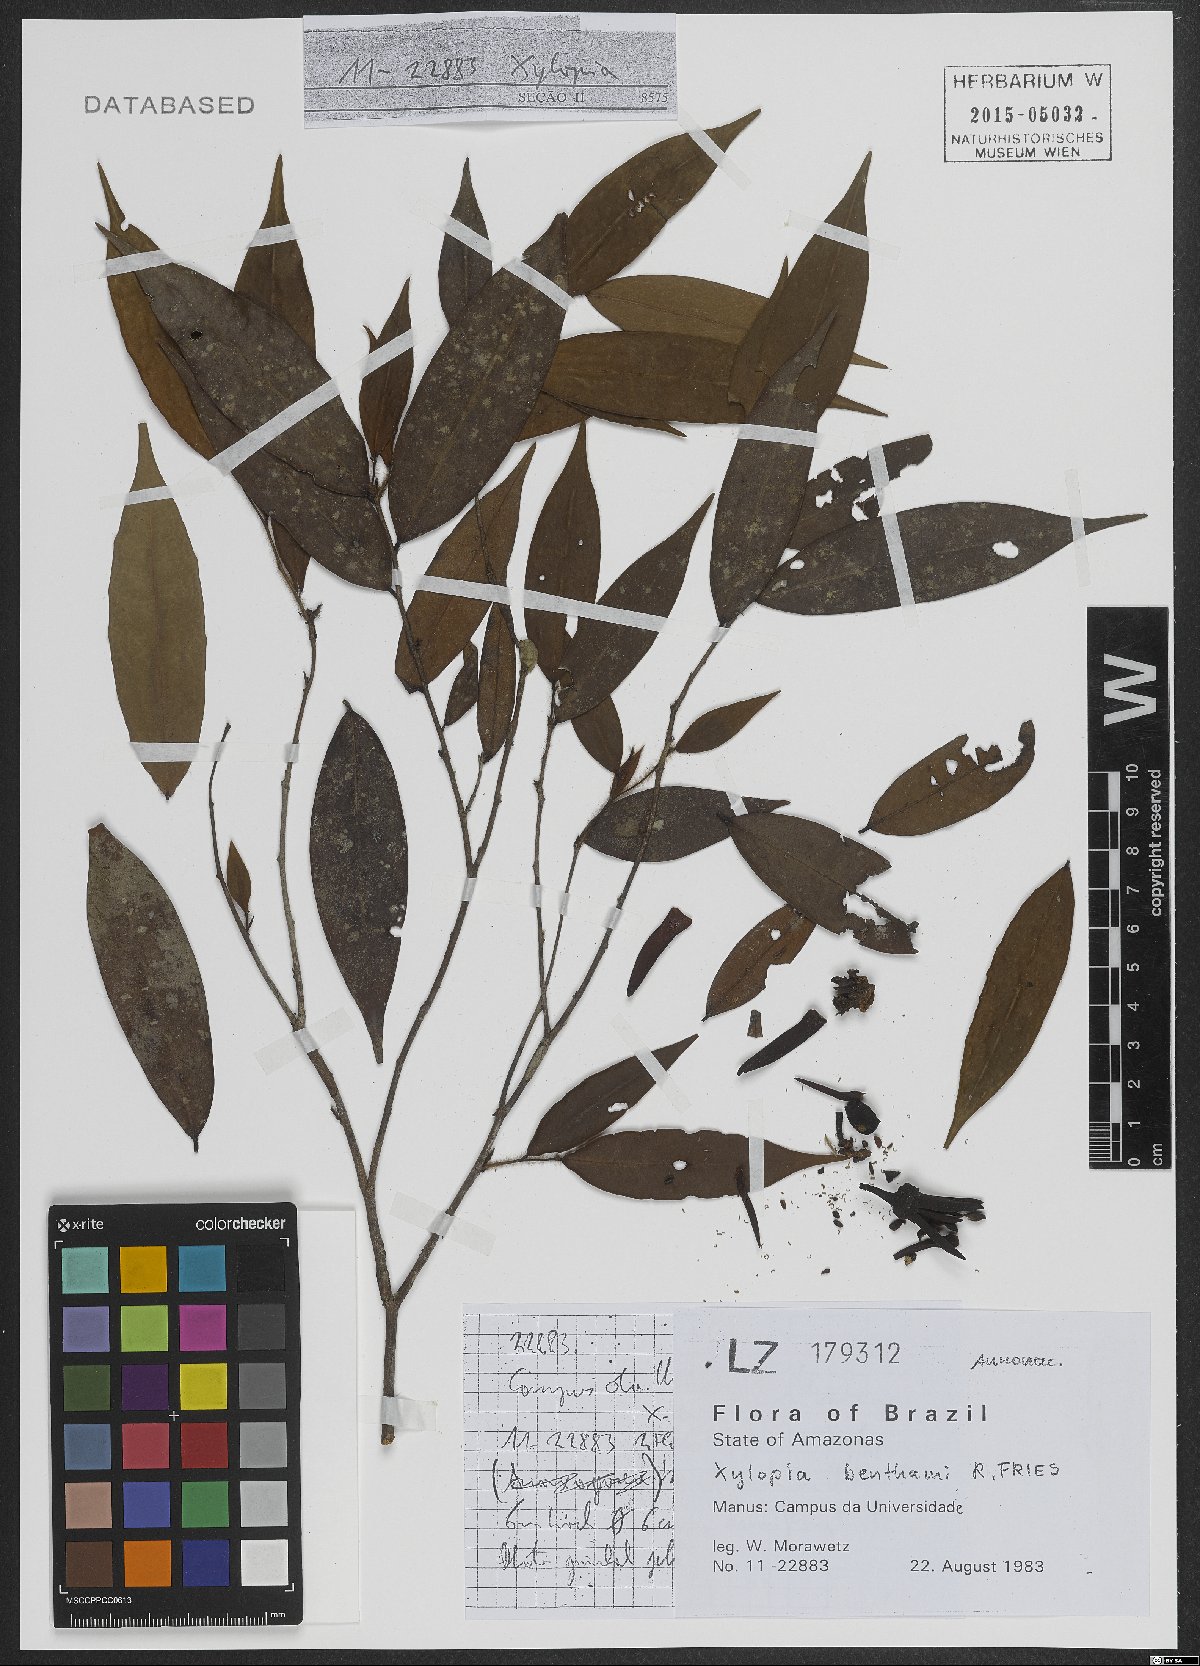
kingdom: Plantae
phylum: Tracheophyta
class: Magnoliopsida
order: Magnoliales
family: Annonaceae
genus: Xylopia
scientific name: Xylopia benthamii
